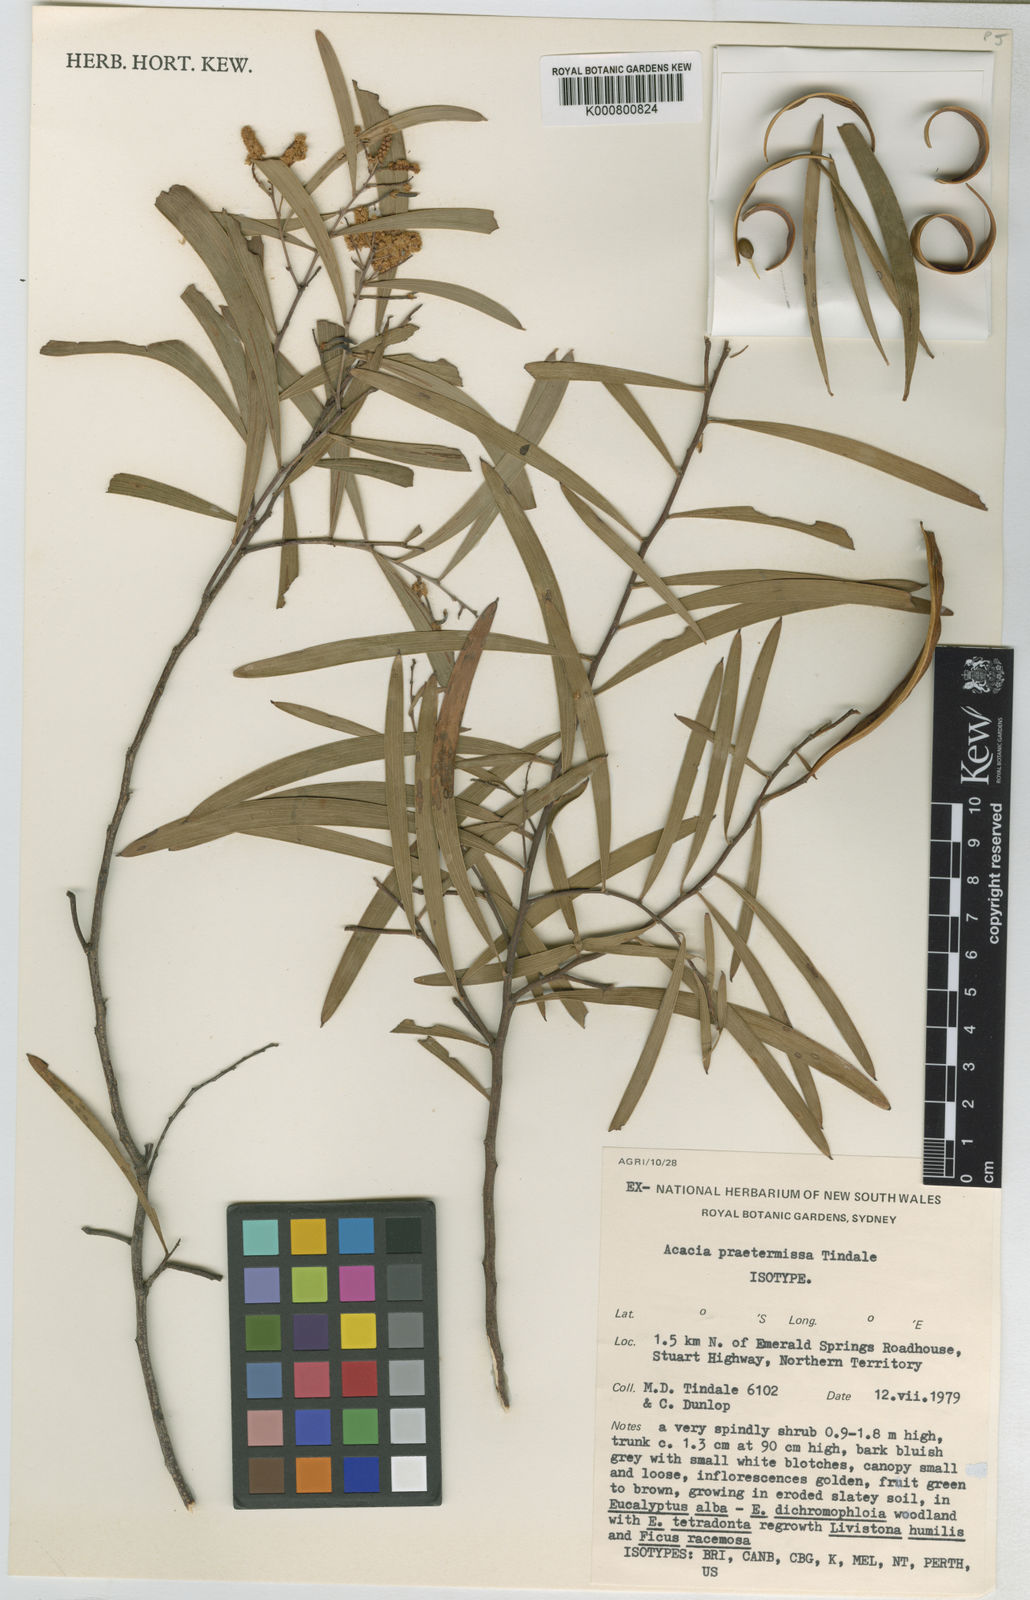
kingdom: Plantae
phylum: Tracheophyta
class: Magnoliopsida
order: Fabales
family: Fabaceae
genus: Acacia
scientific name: Acacia prominens
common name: Gosford wattle
